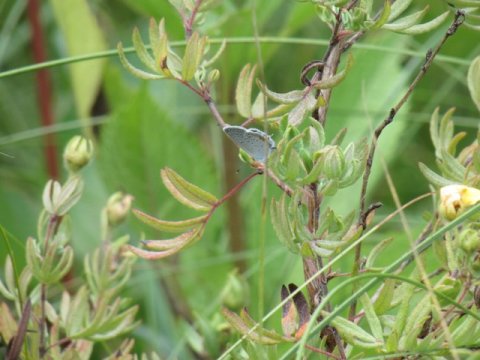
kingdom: Animalia
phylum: Arthropoda
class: Insecta
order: Lepidoptera
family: Lycaenidae
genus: Elkalyce
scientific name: Elkalyce comyntas
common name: Eastern Tailed-Blue
